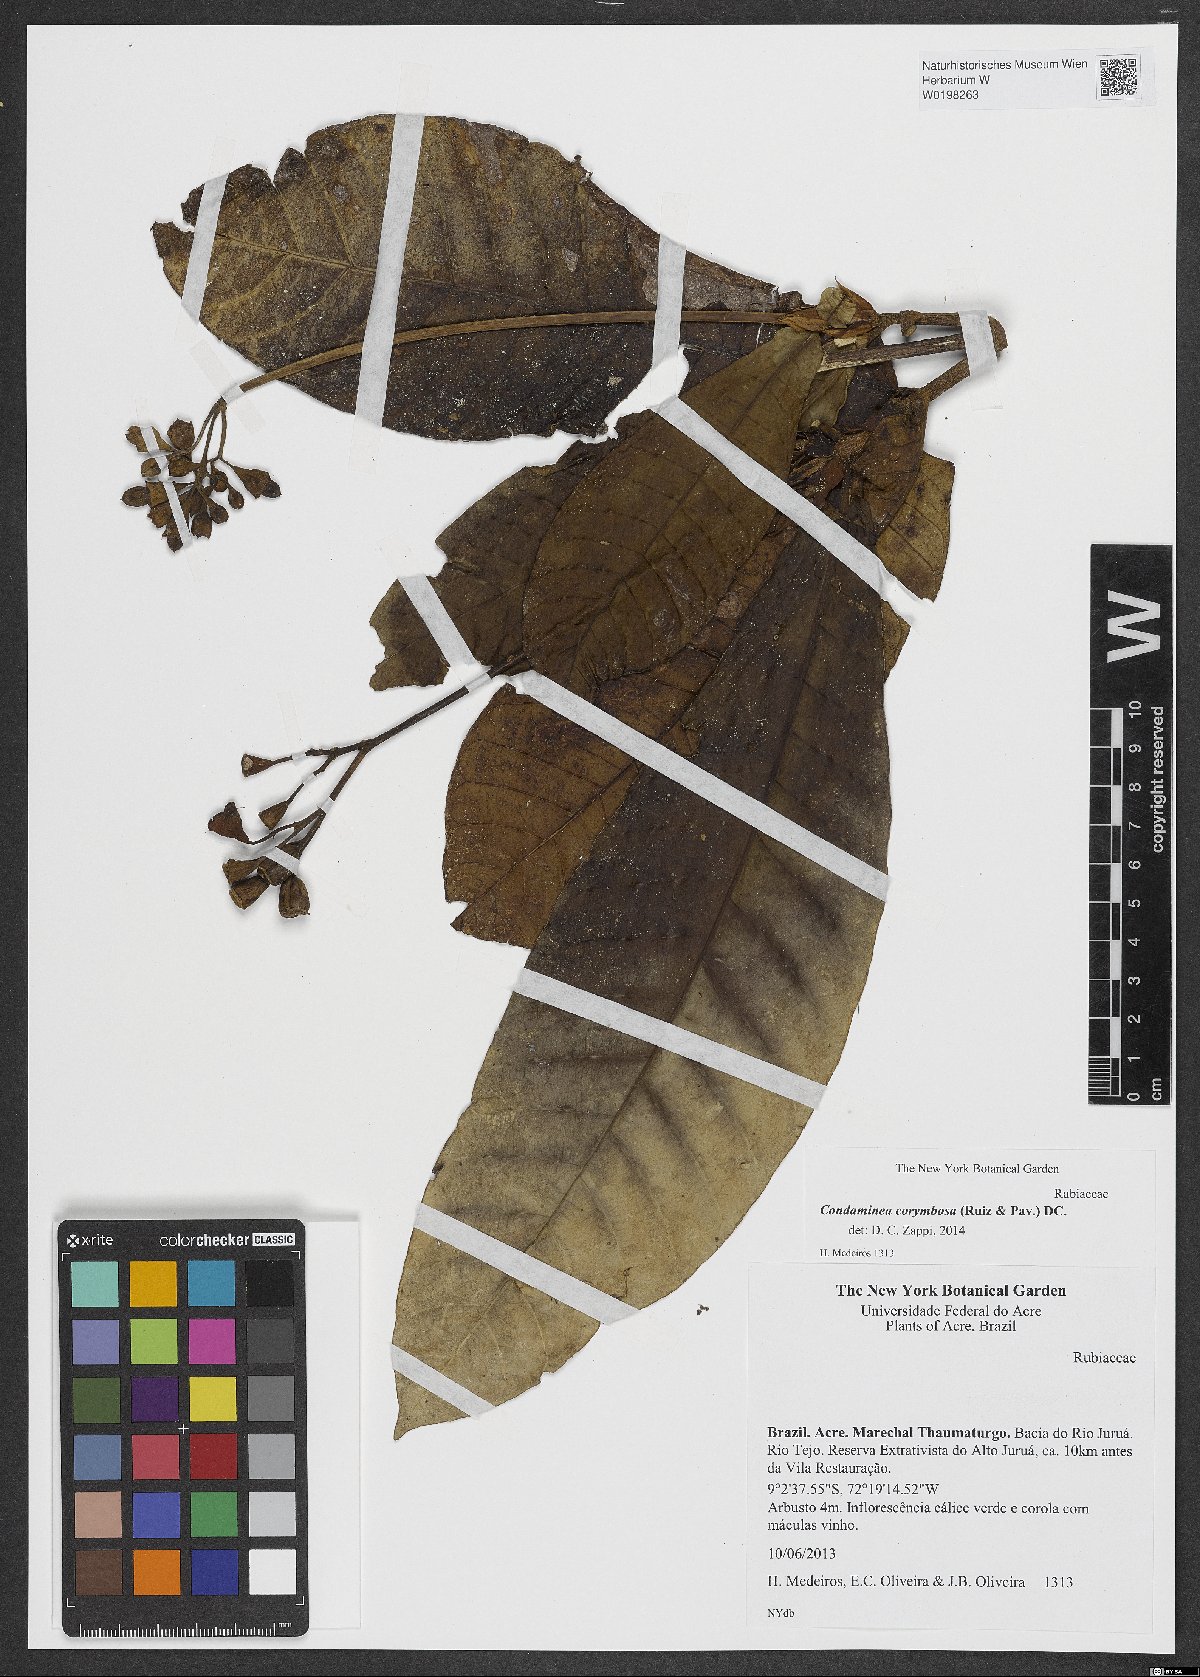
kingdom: Plantae
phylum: Tracheophyta
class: Magnoliopsida
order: Gentianales
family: Rubiaceae
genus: Condaminea
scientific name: Condaminea corymbosa
